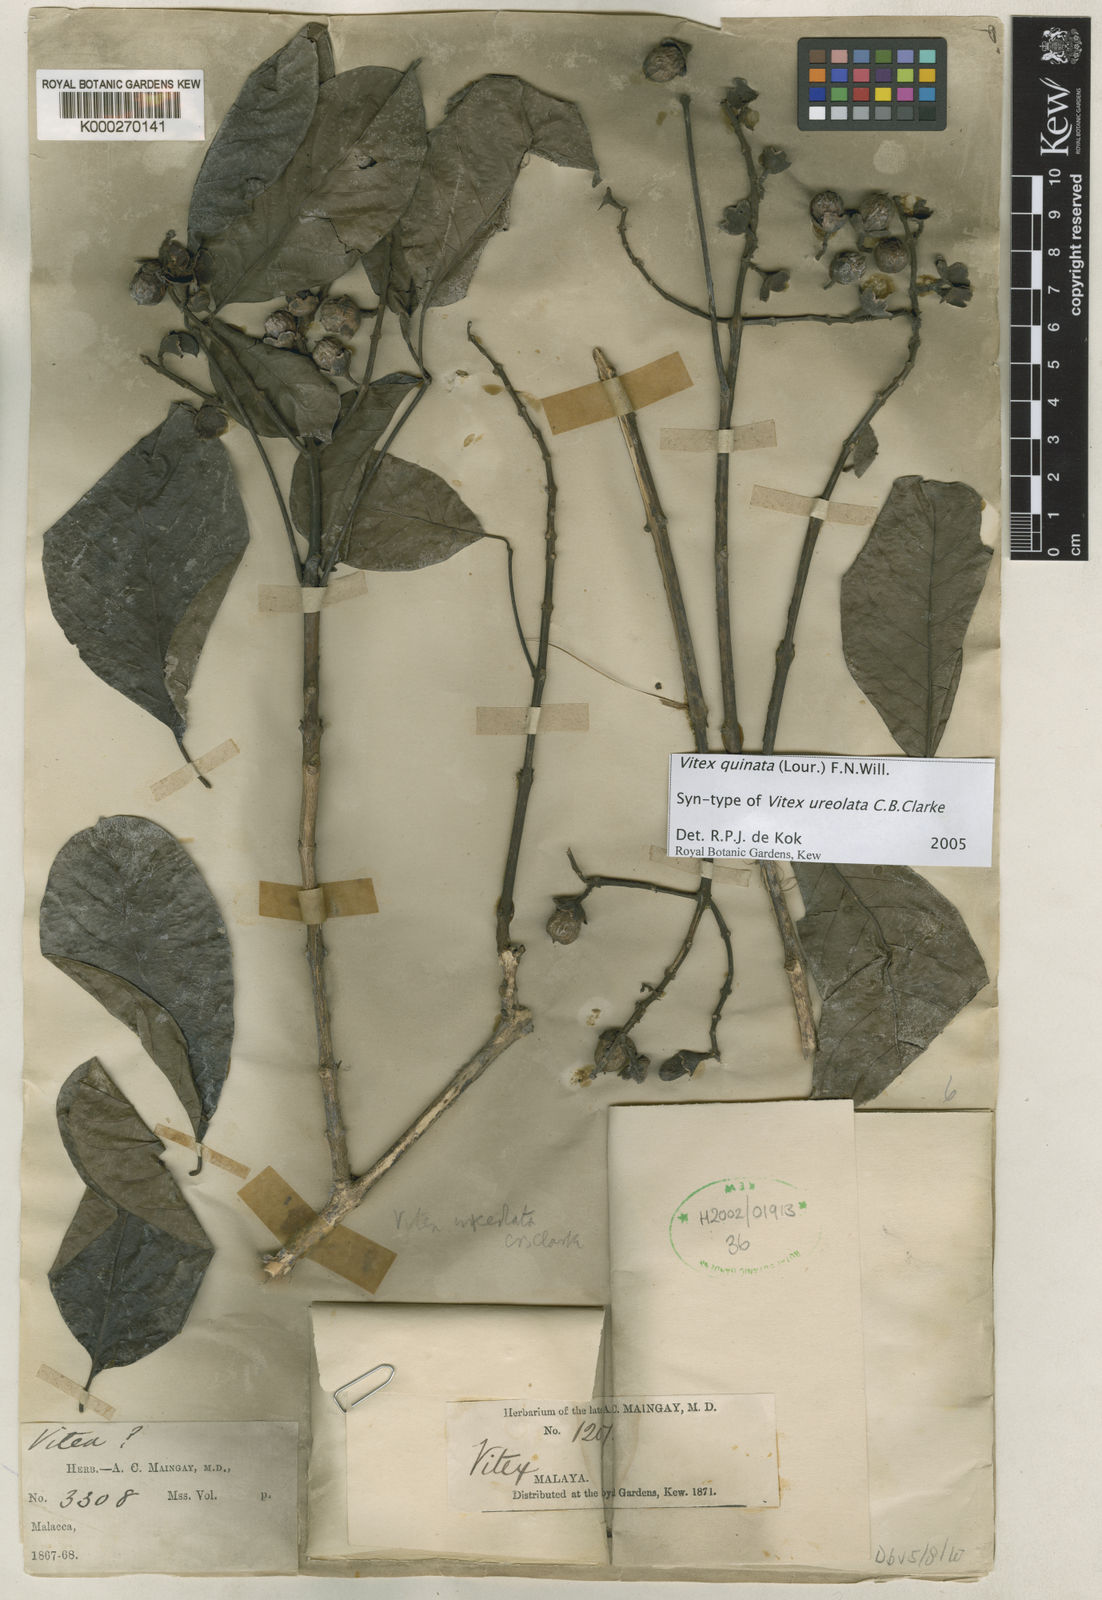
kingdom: Plantae
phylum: Tracheophyta
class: Magnoliopsida
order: Lamiales
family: Lamiaceae
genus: Vitex
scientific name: Vitex quinata
